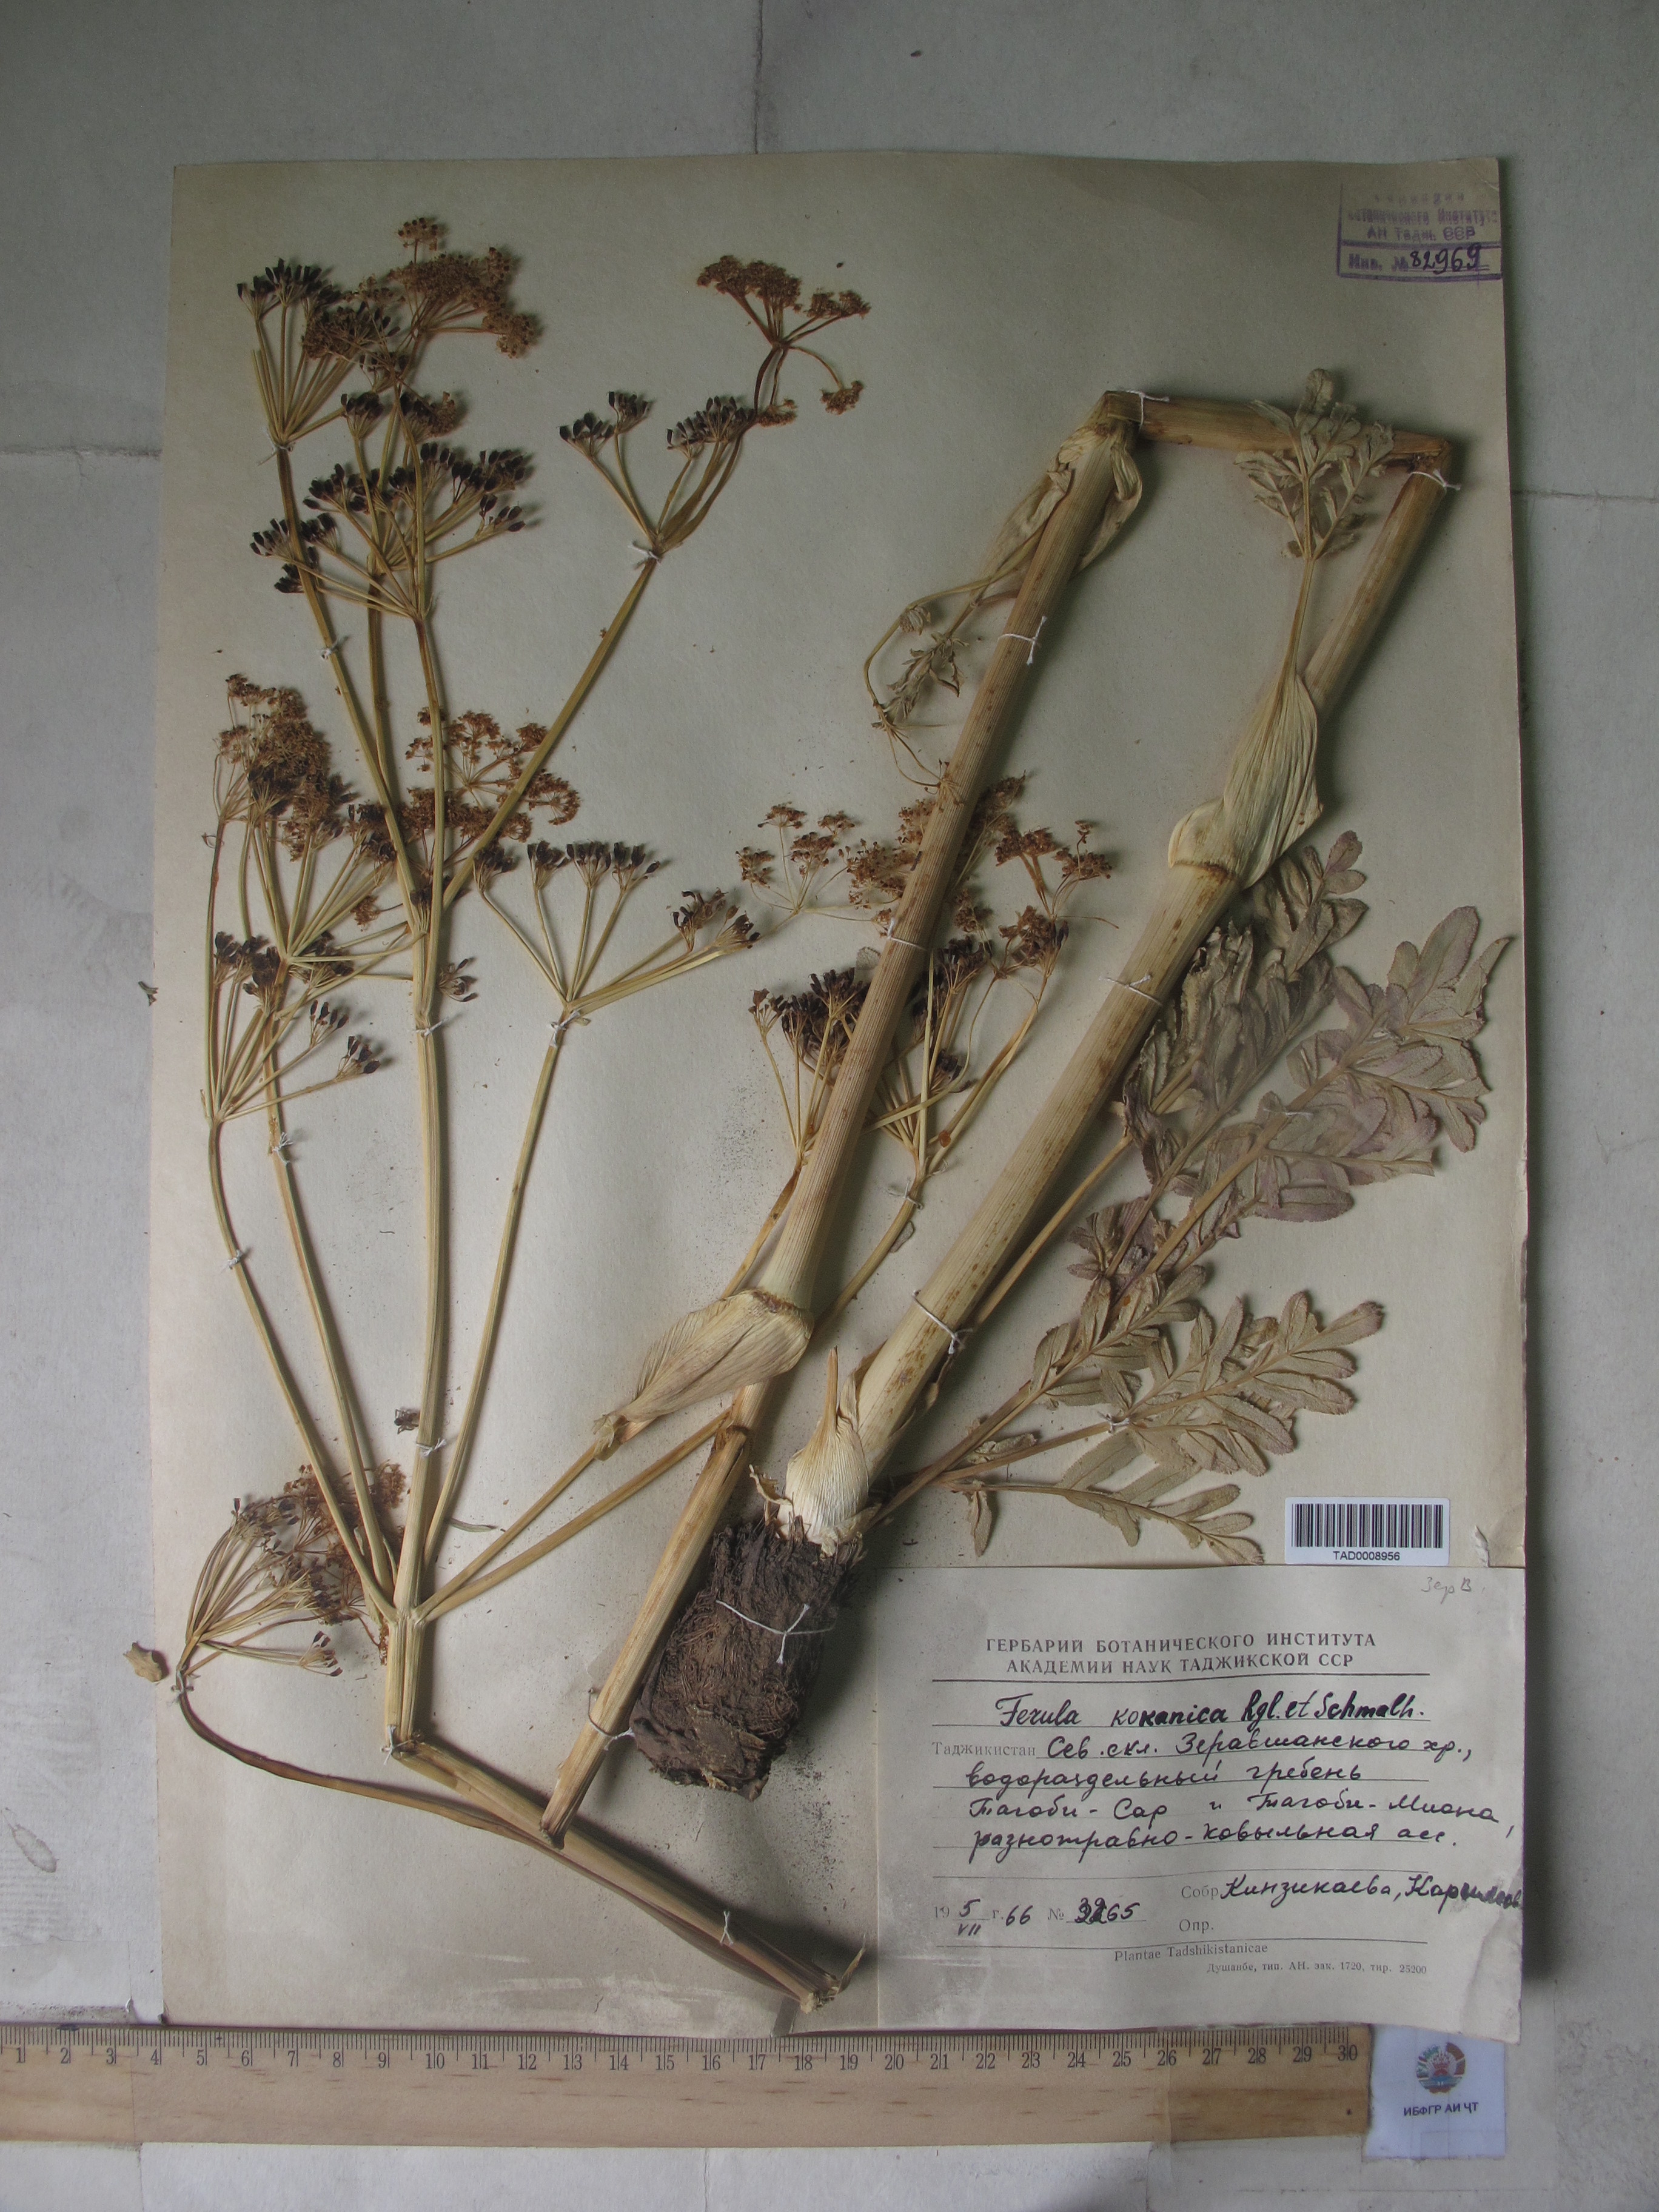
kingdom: Plantae
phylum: Tracheophyta
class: Magnoliopsida
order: Apiales
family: Apiaceae
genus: Ferula
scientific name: Ferula kokanica
